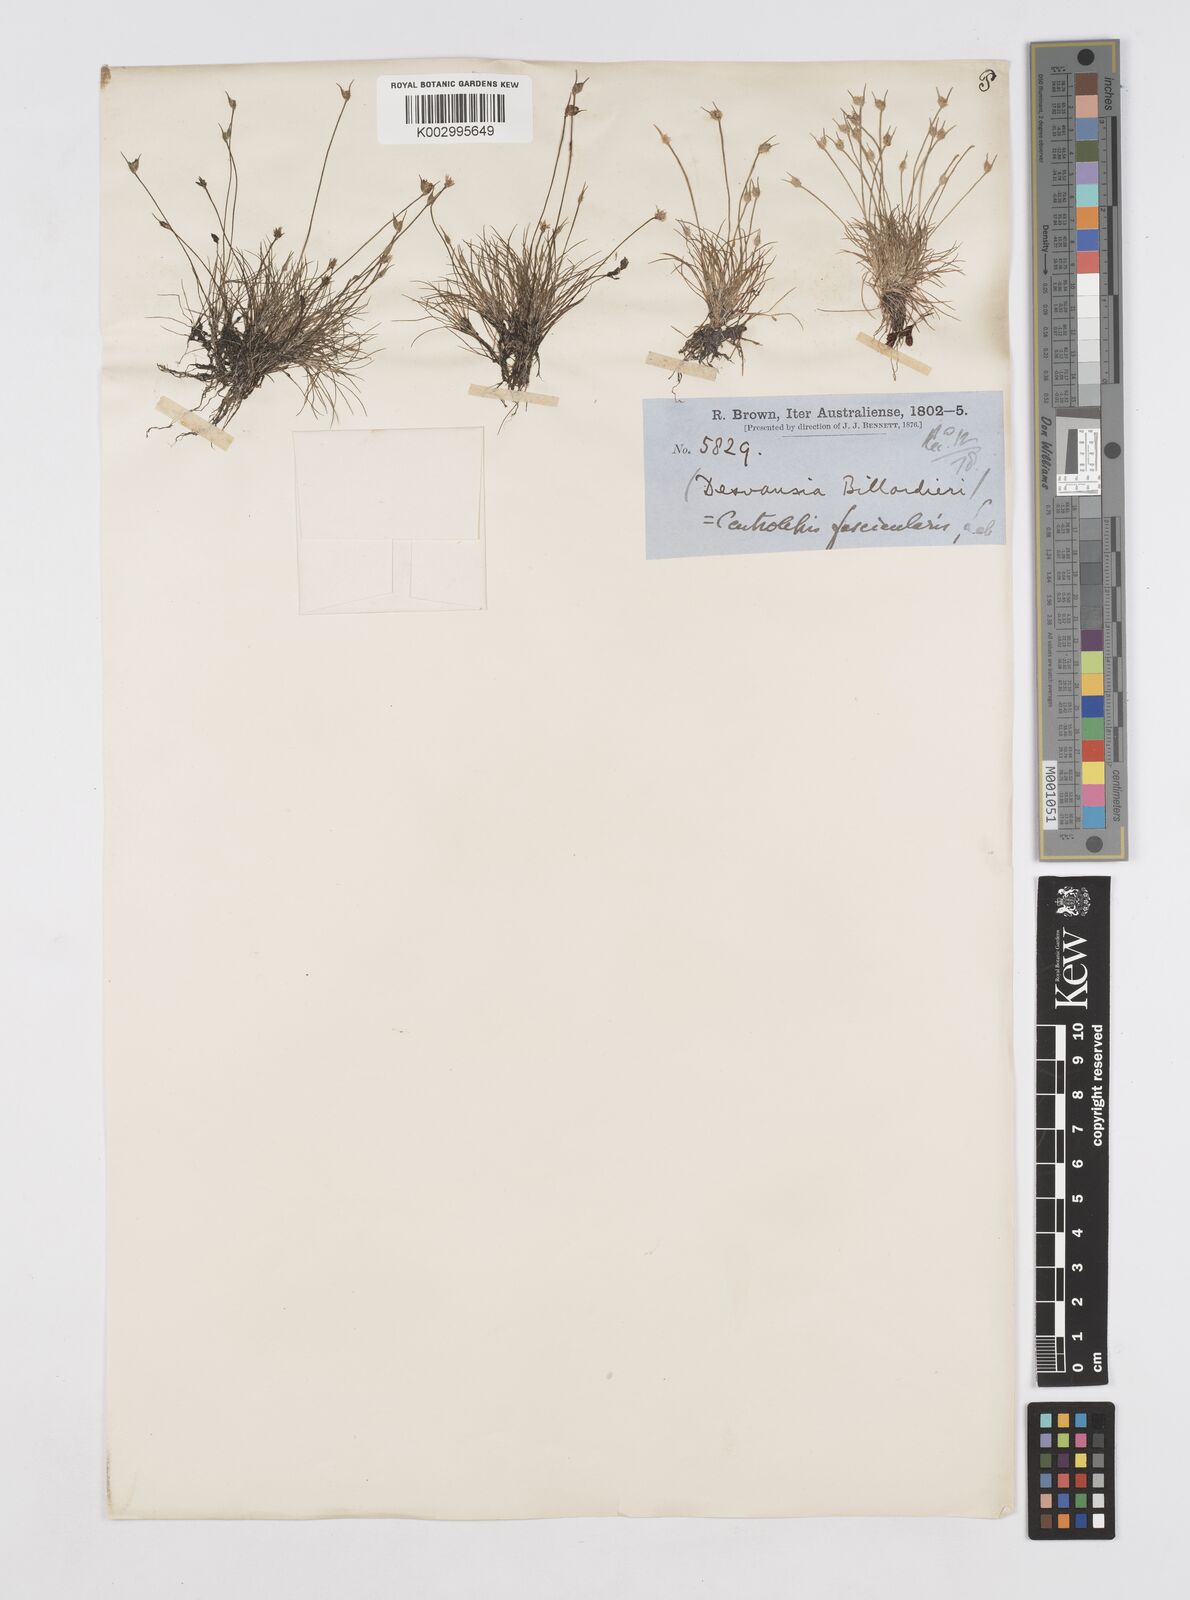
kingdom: Plantae
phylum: Tracheophyta
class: Liliopsida
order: Poales
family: Restionaceae
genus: Centrolepis
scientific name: Centrolepis fascicularis
